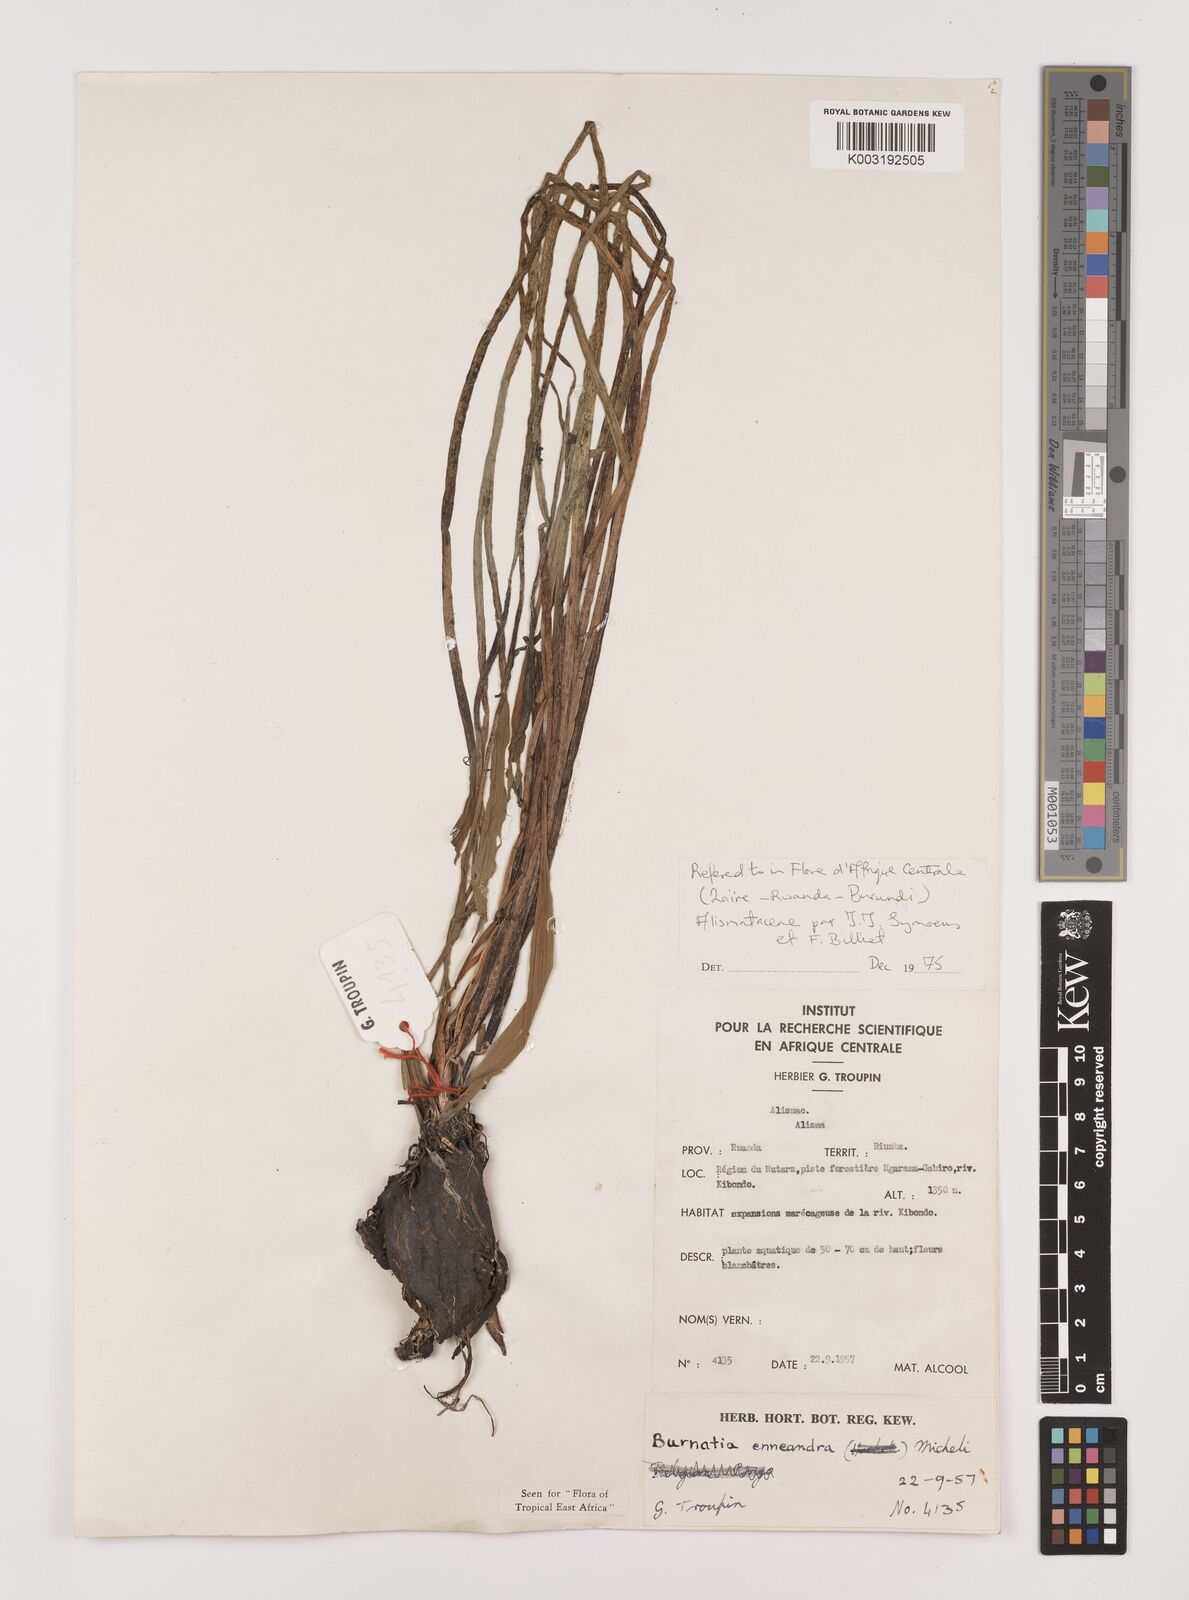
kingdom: Plantae
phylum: Tracheophyta
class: Liliopsida
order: Alismatales
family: Alismataceae
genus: Burnatia
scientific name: Burnatia enneandra
